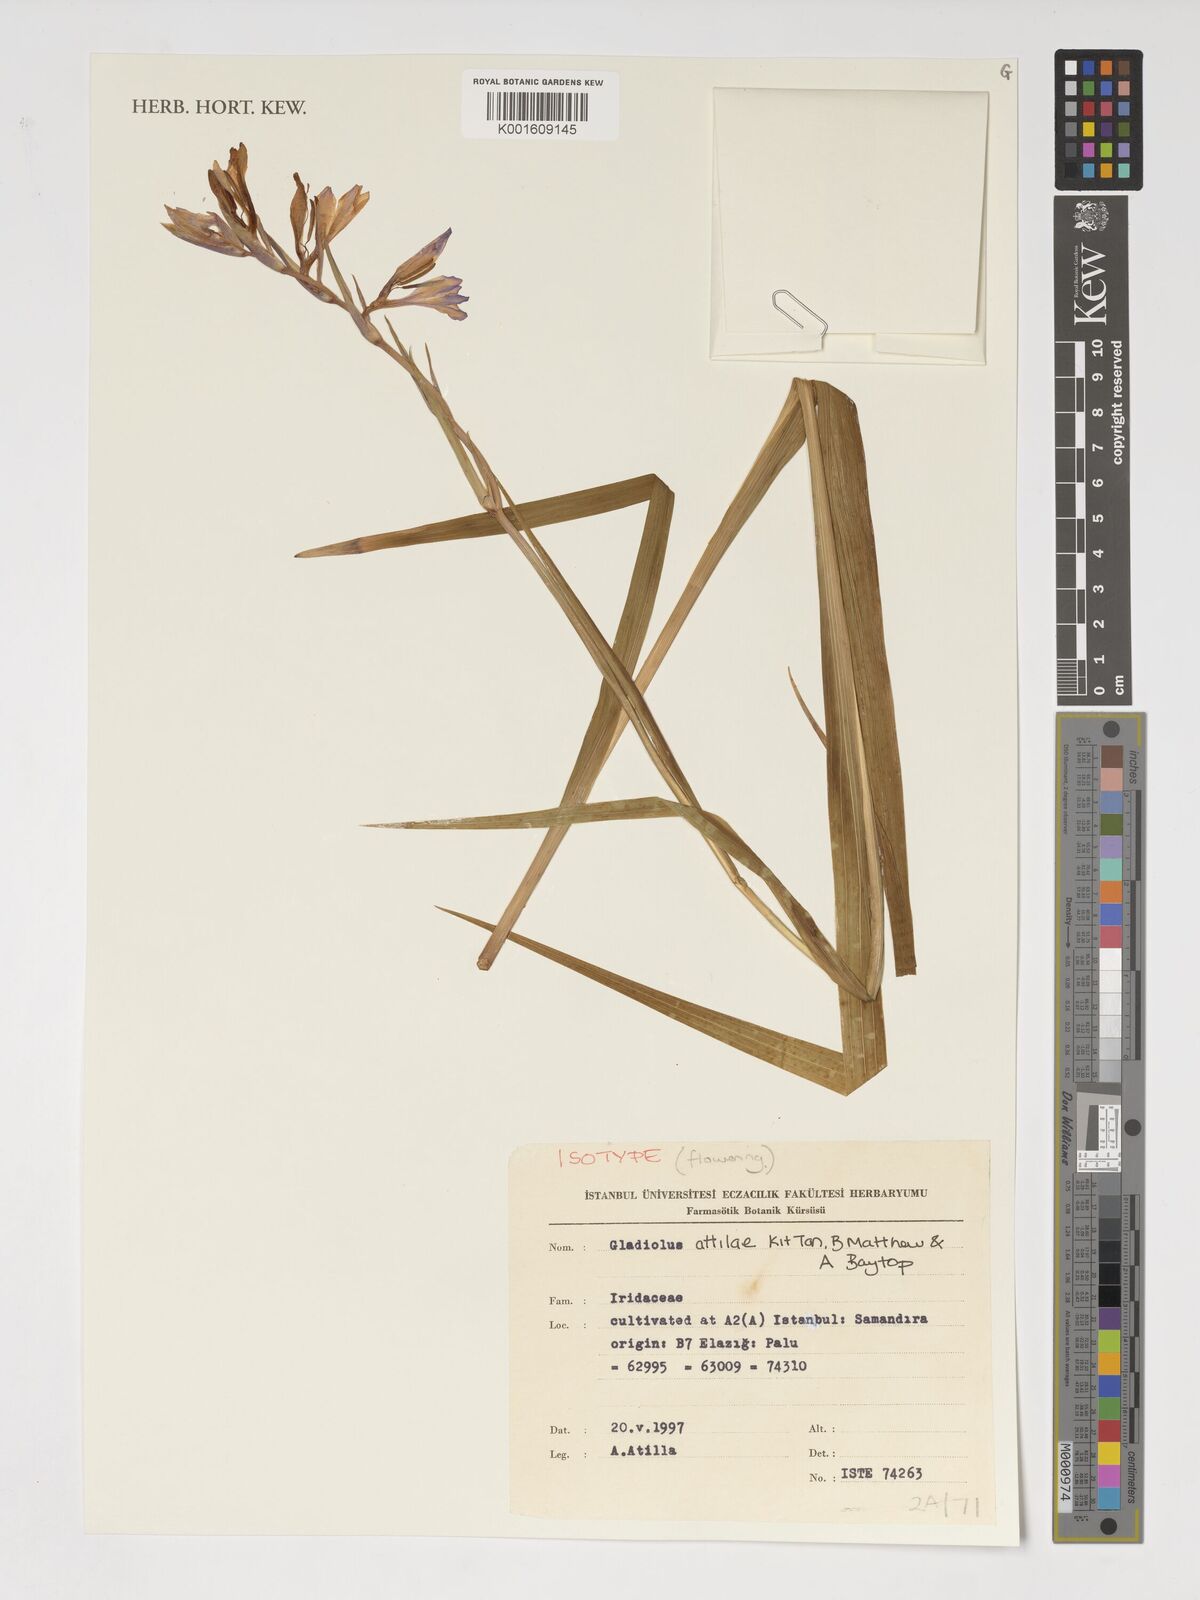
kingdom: Plantae
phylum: Tracheophyta
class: Liliopsida
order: Asparagales
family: Iridaceae
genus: Gladiolus
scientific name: Gladiolus attilae
